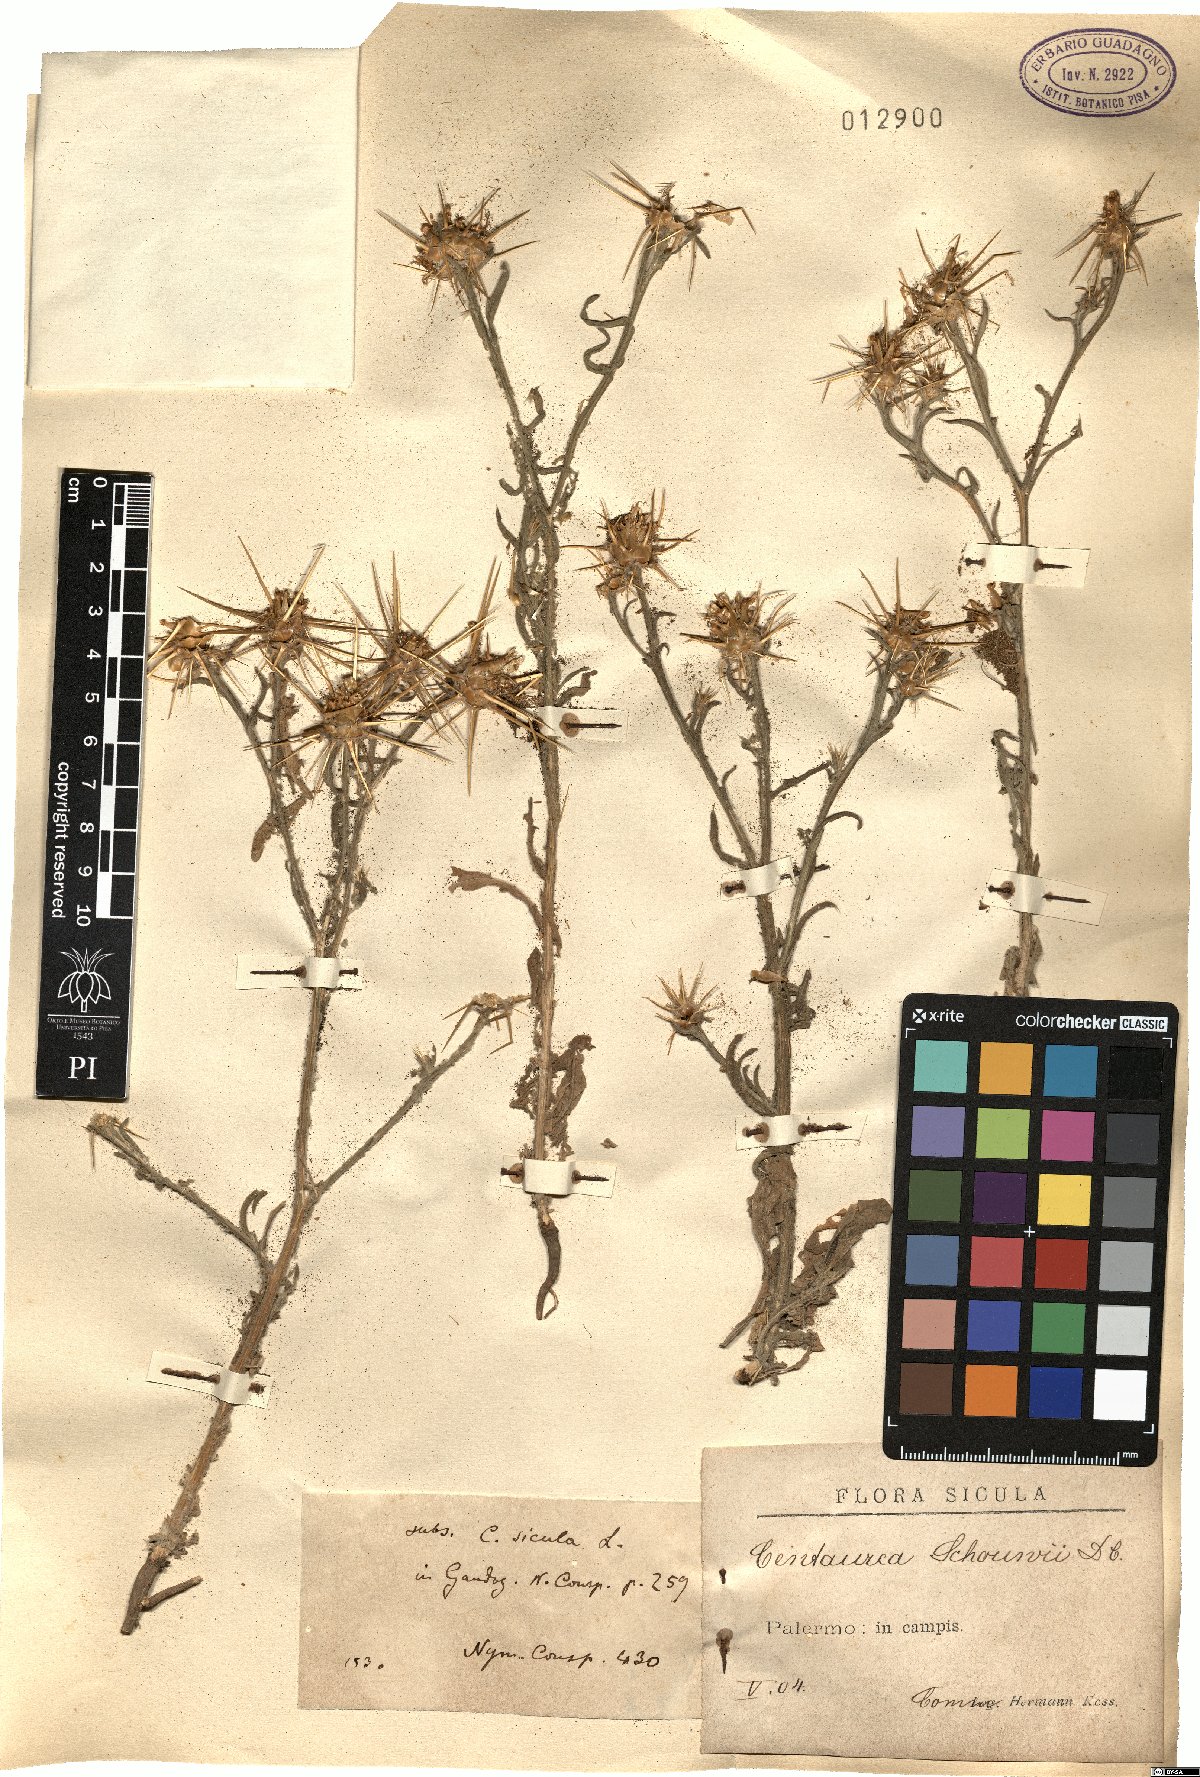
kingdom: Plantae
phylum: Tracheophyta
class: Magnoliopsida
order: Asterales
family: Asteraceae
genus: Centaurea
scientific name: Centaurea solstitialis
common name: Yellow star-thistle
